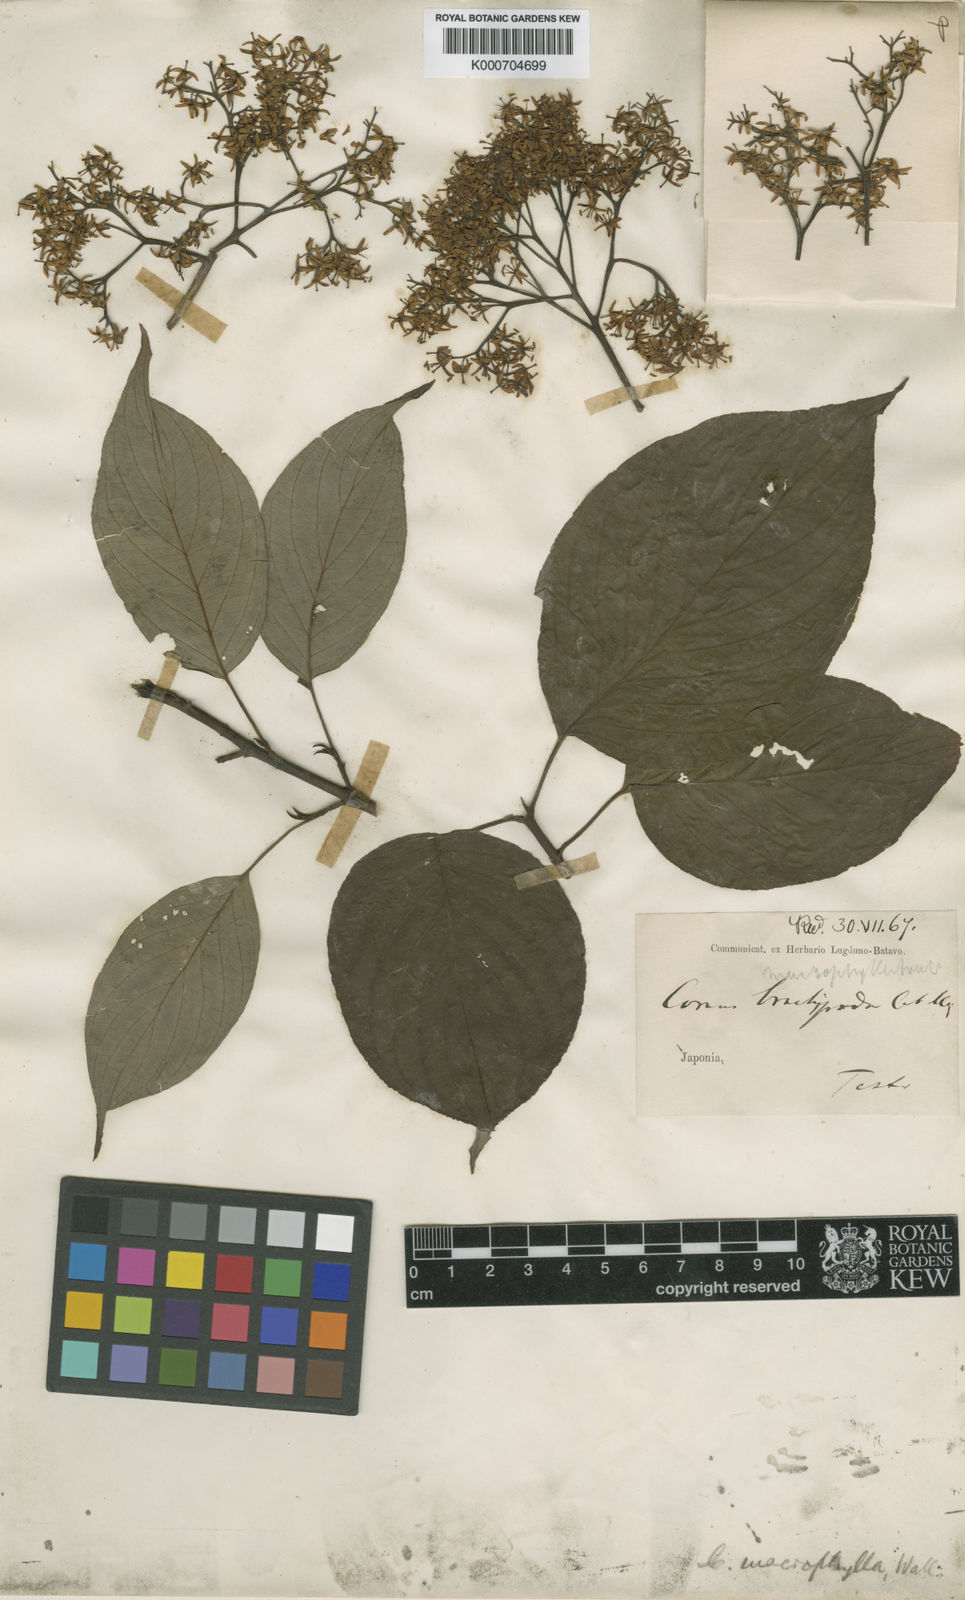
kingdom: Plantae
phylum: Tracheophyta
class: Magnoliopsida
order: Cornales
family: Cornaceae
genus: Cornus
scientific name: Cornus macrophylla
